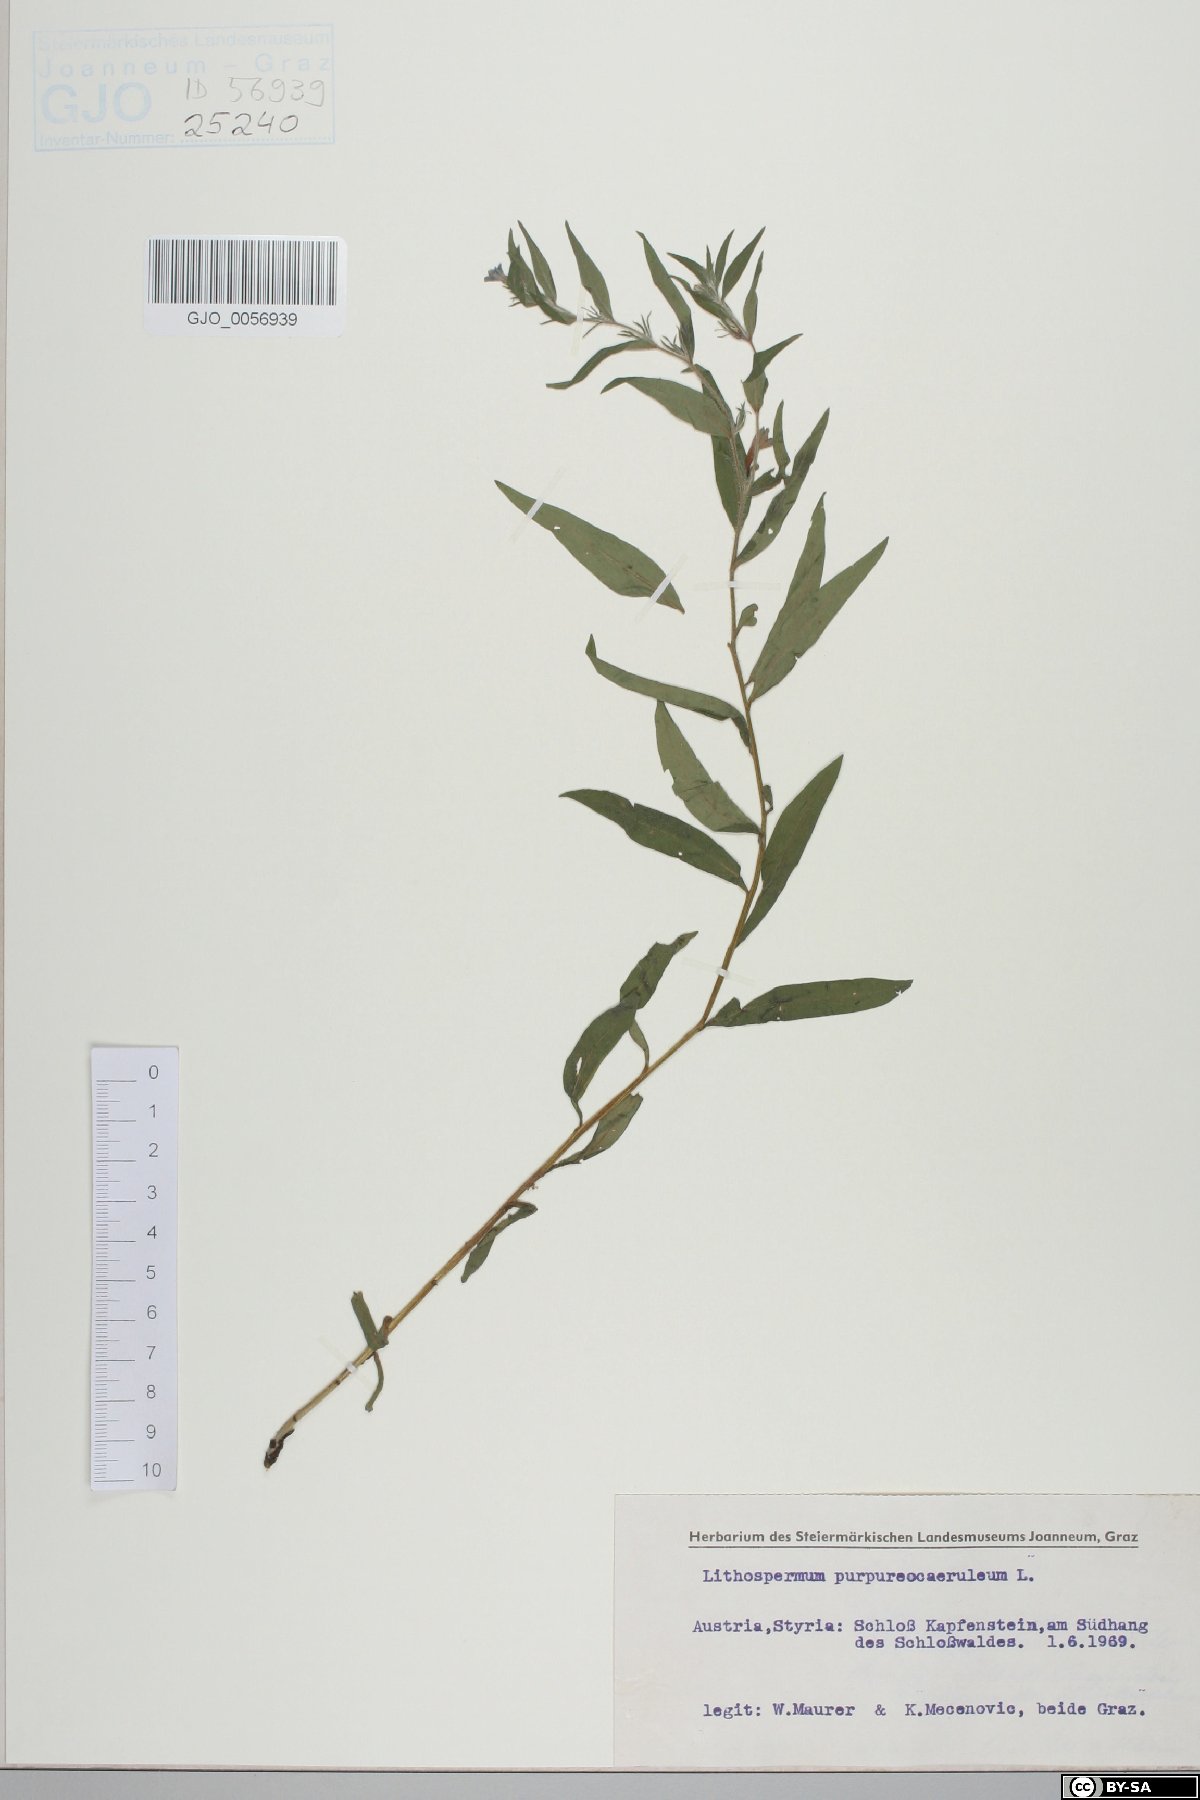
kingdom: Plantae
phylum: Tracheophyta
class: Magnoliopsida
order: Boraginales
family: Boraginaceae
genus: Aegonychon
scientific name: Aegonychon purpurocaeruleum
